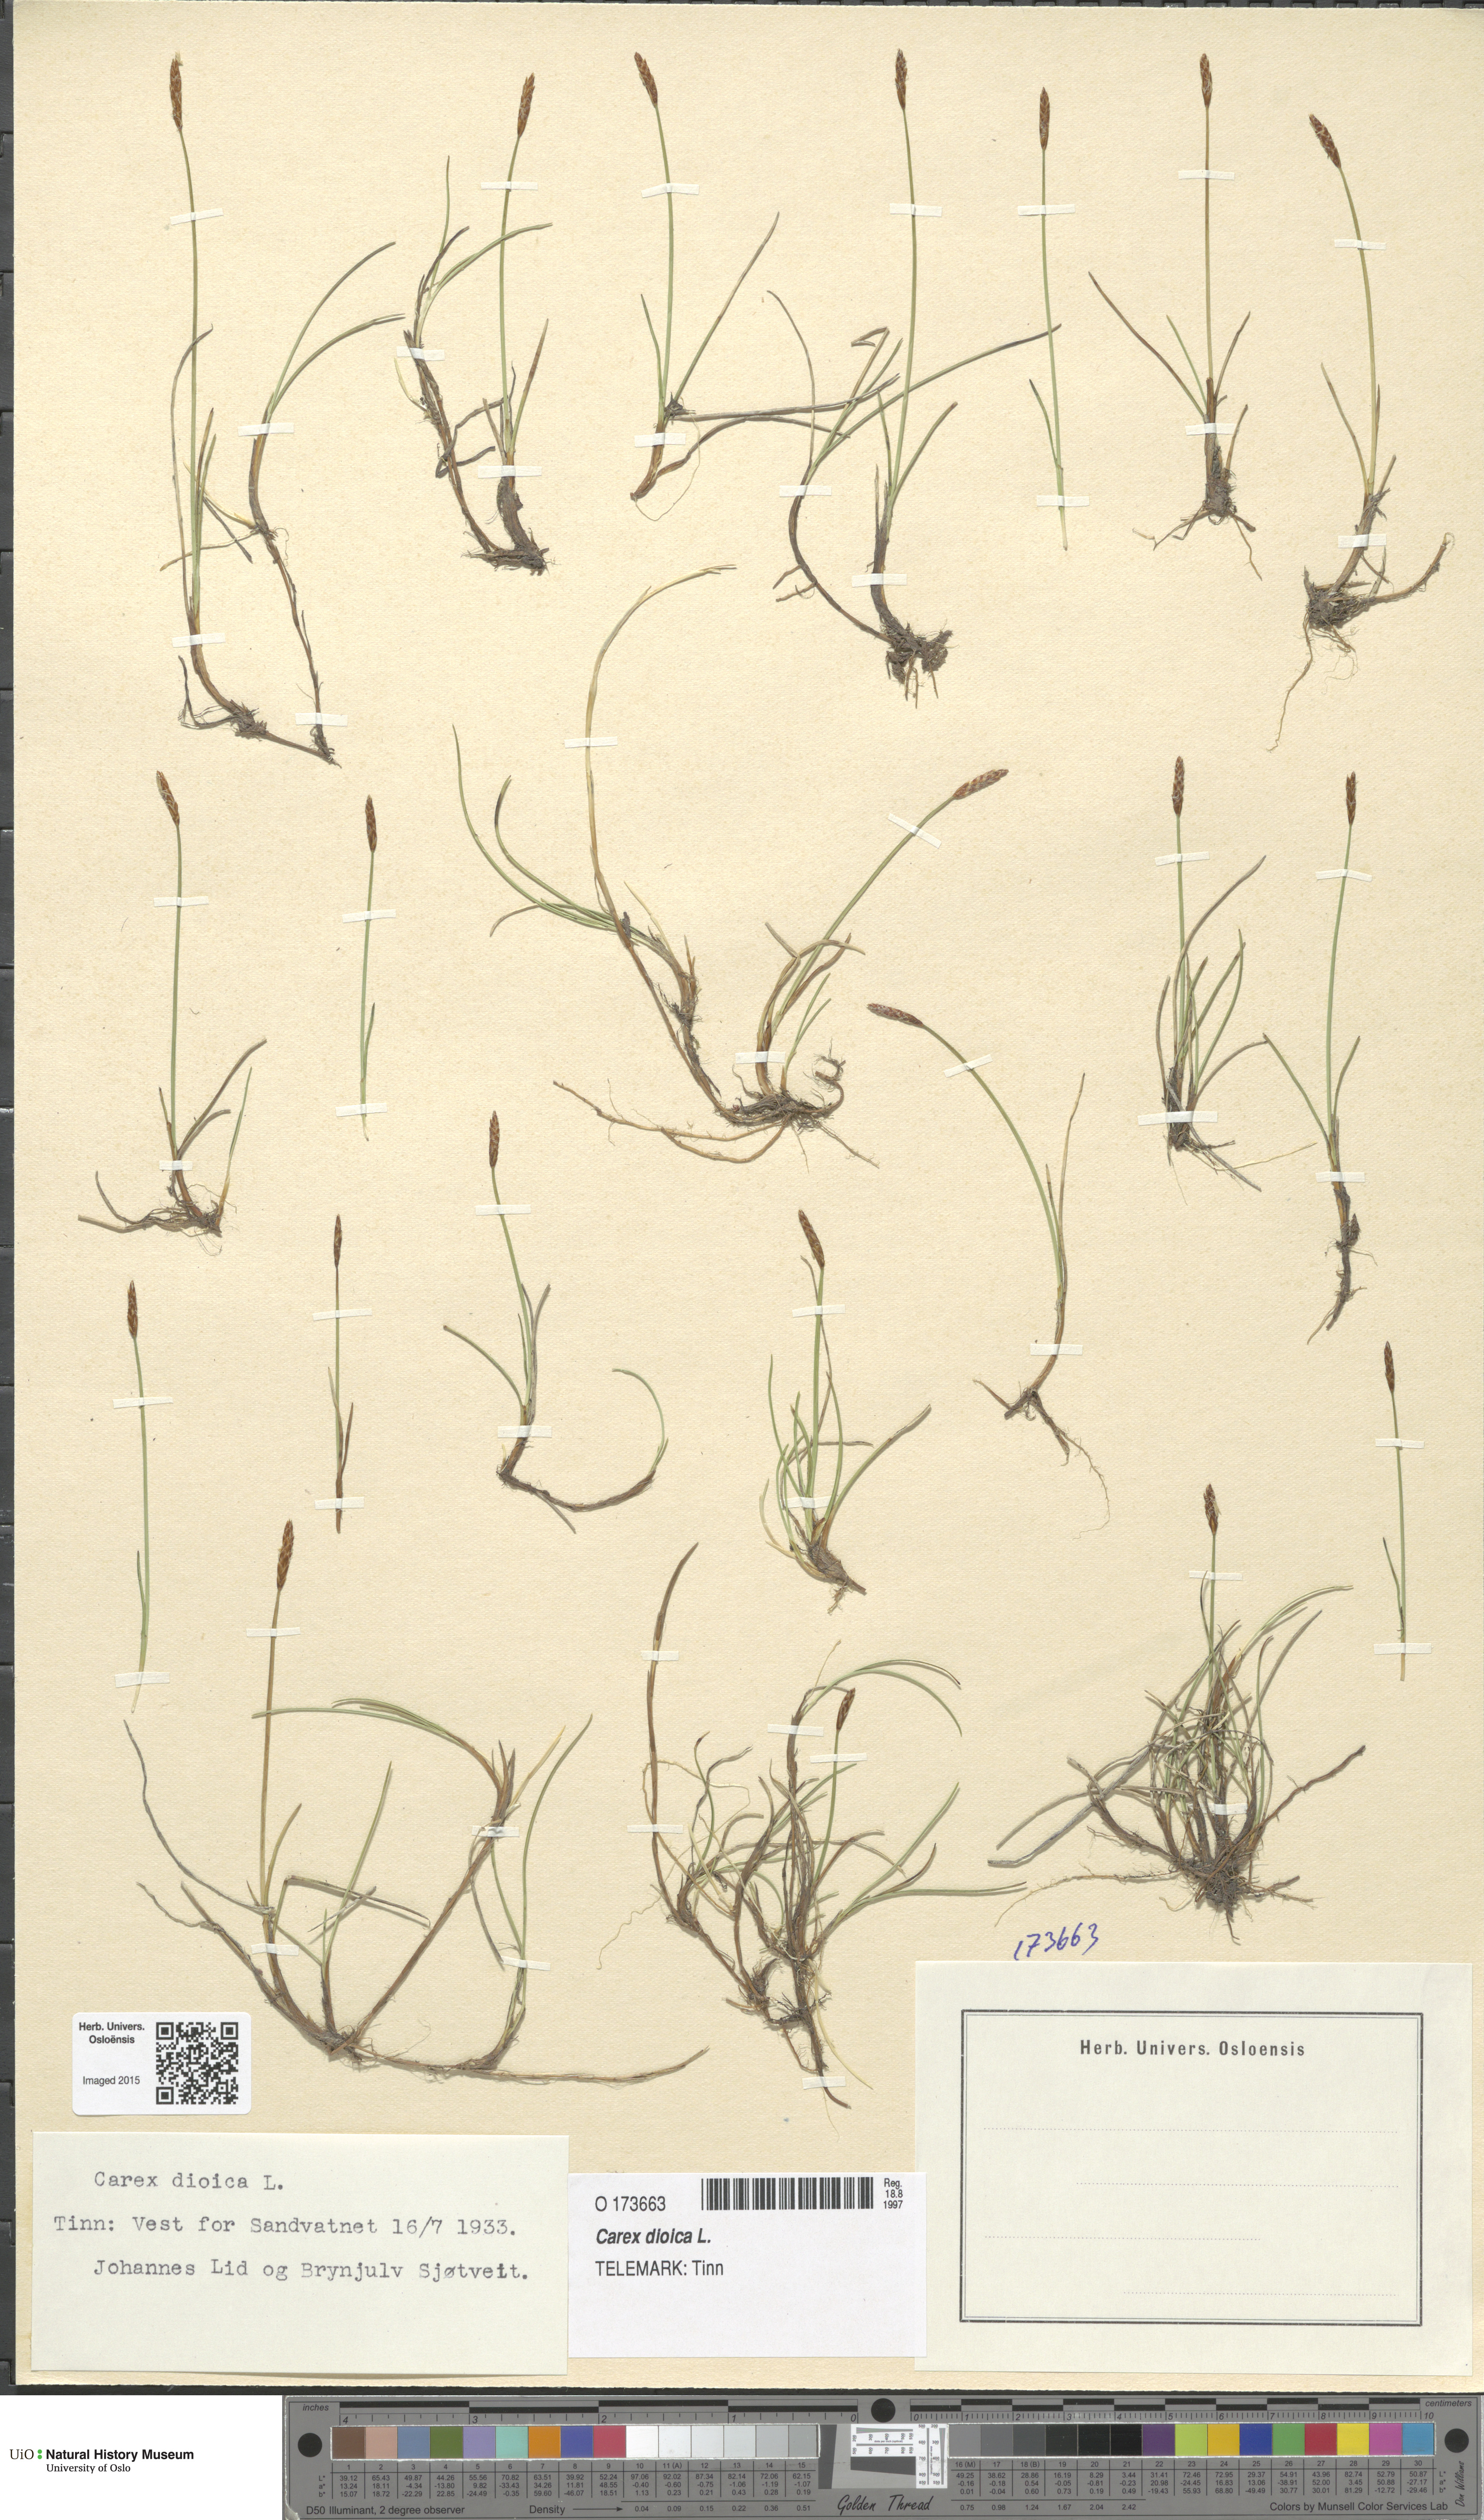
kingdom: Plantae
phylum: Tracheophyta
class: Liliopsida
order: Poales
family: Cyperaceae
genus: Carex
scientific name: Carex dioica
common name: Dioecious sedge
